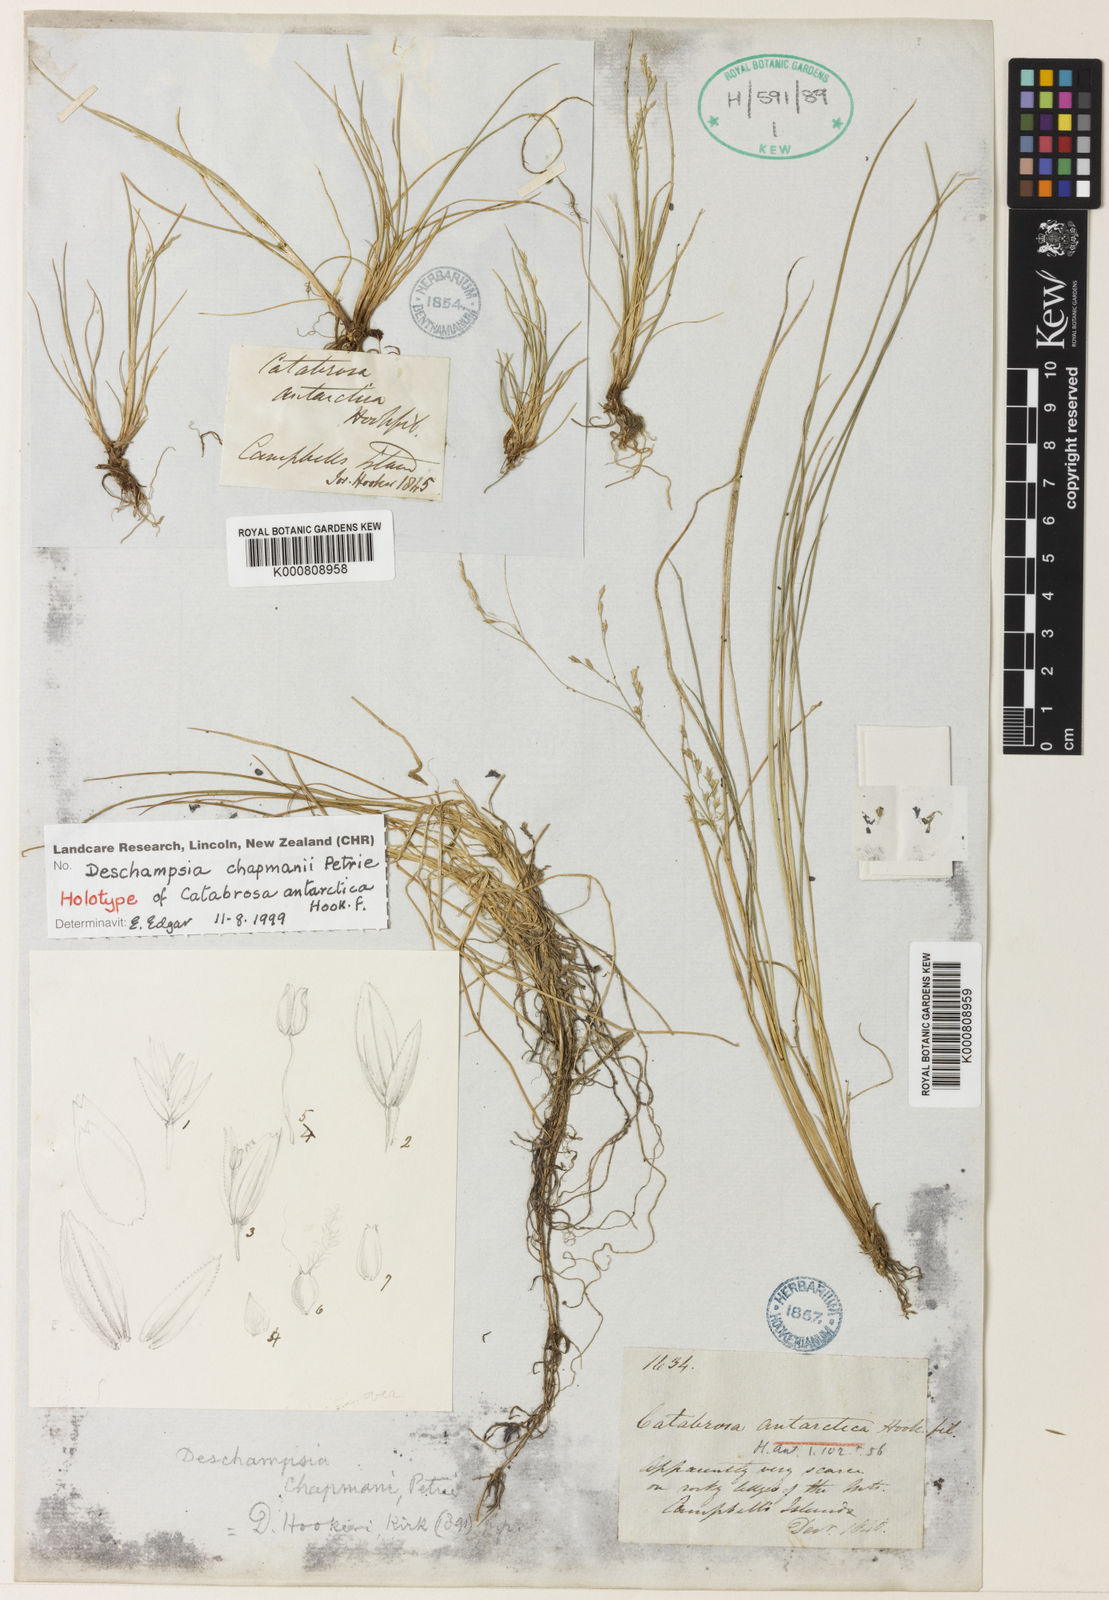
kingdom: Plantae
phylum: Tracheophyta
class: Liliopsida
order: Poales
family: Poaceae
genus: Deschampsia
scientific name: Deschampsia chapmanii
